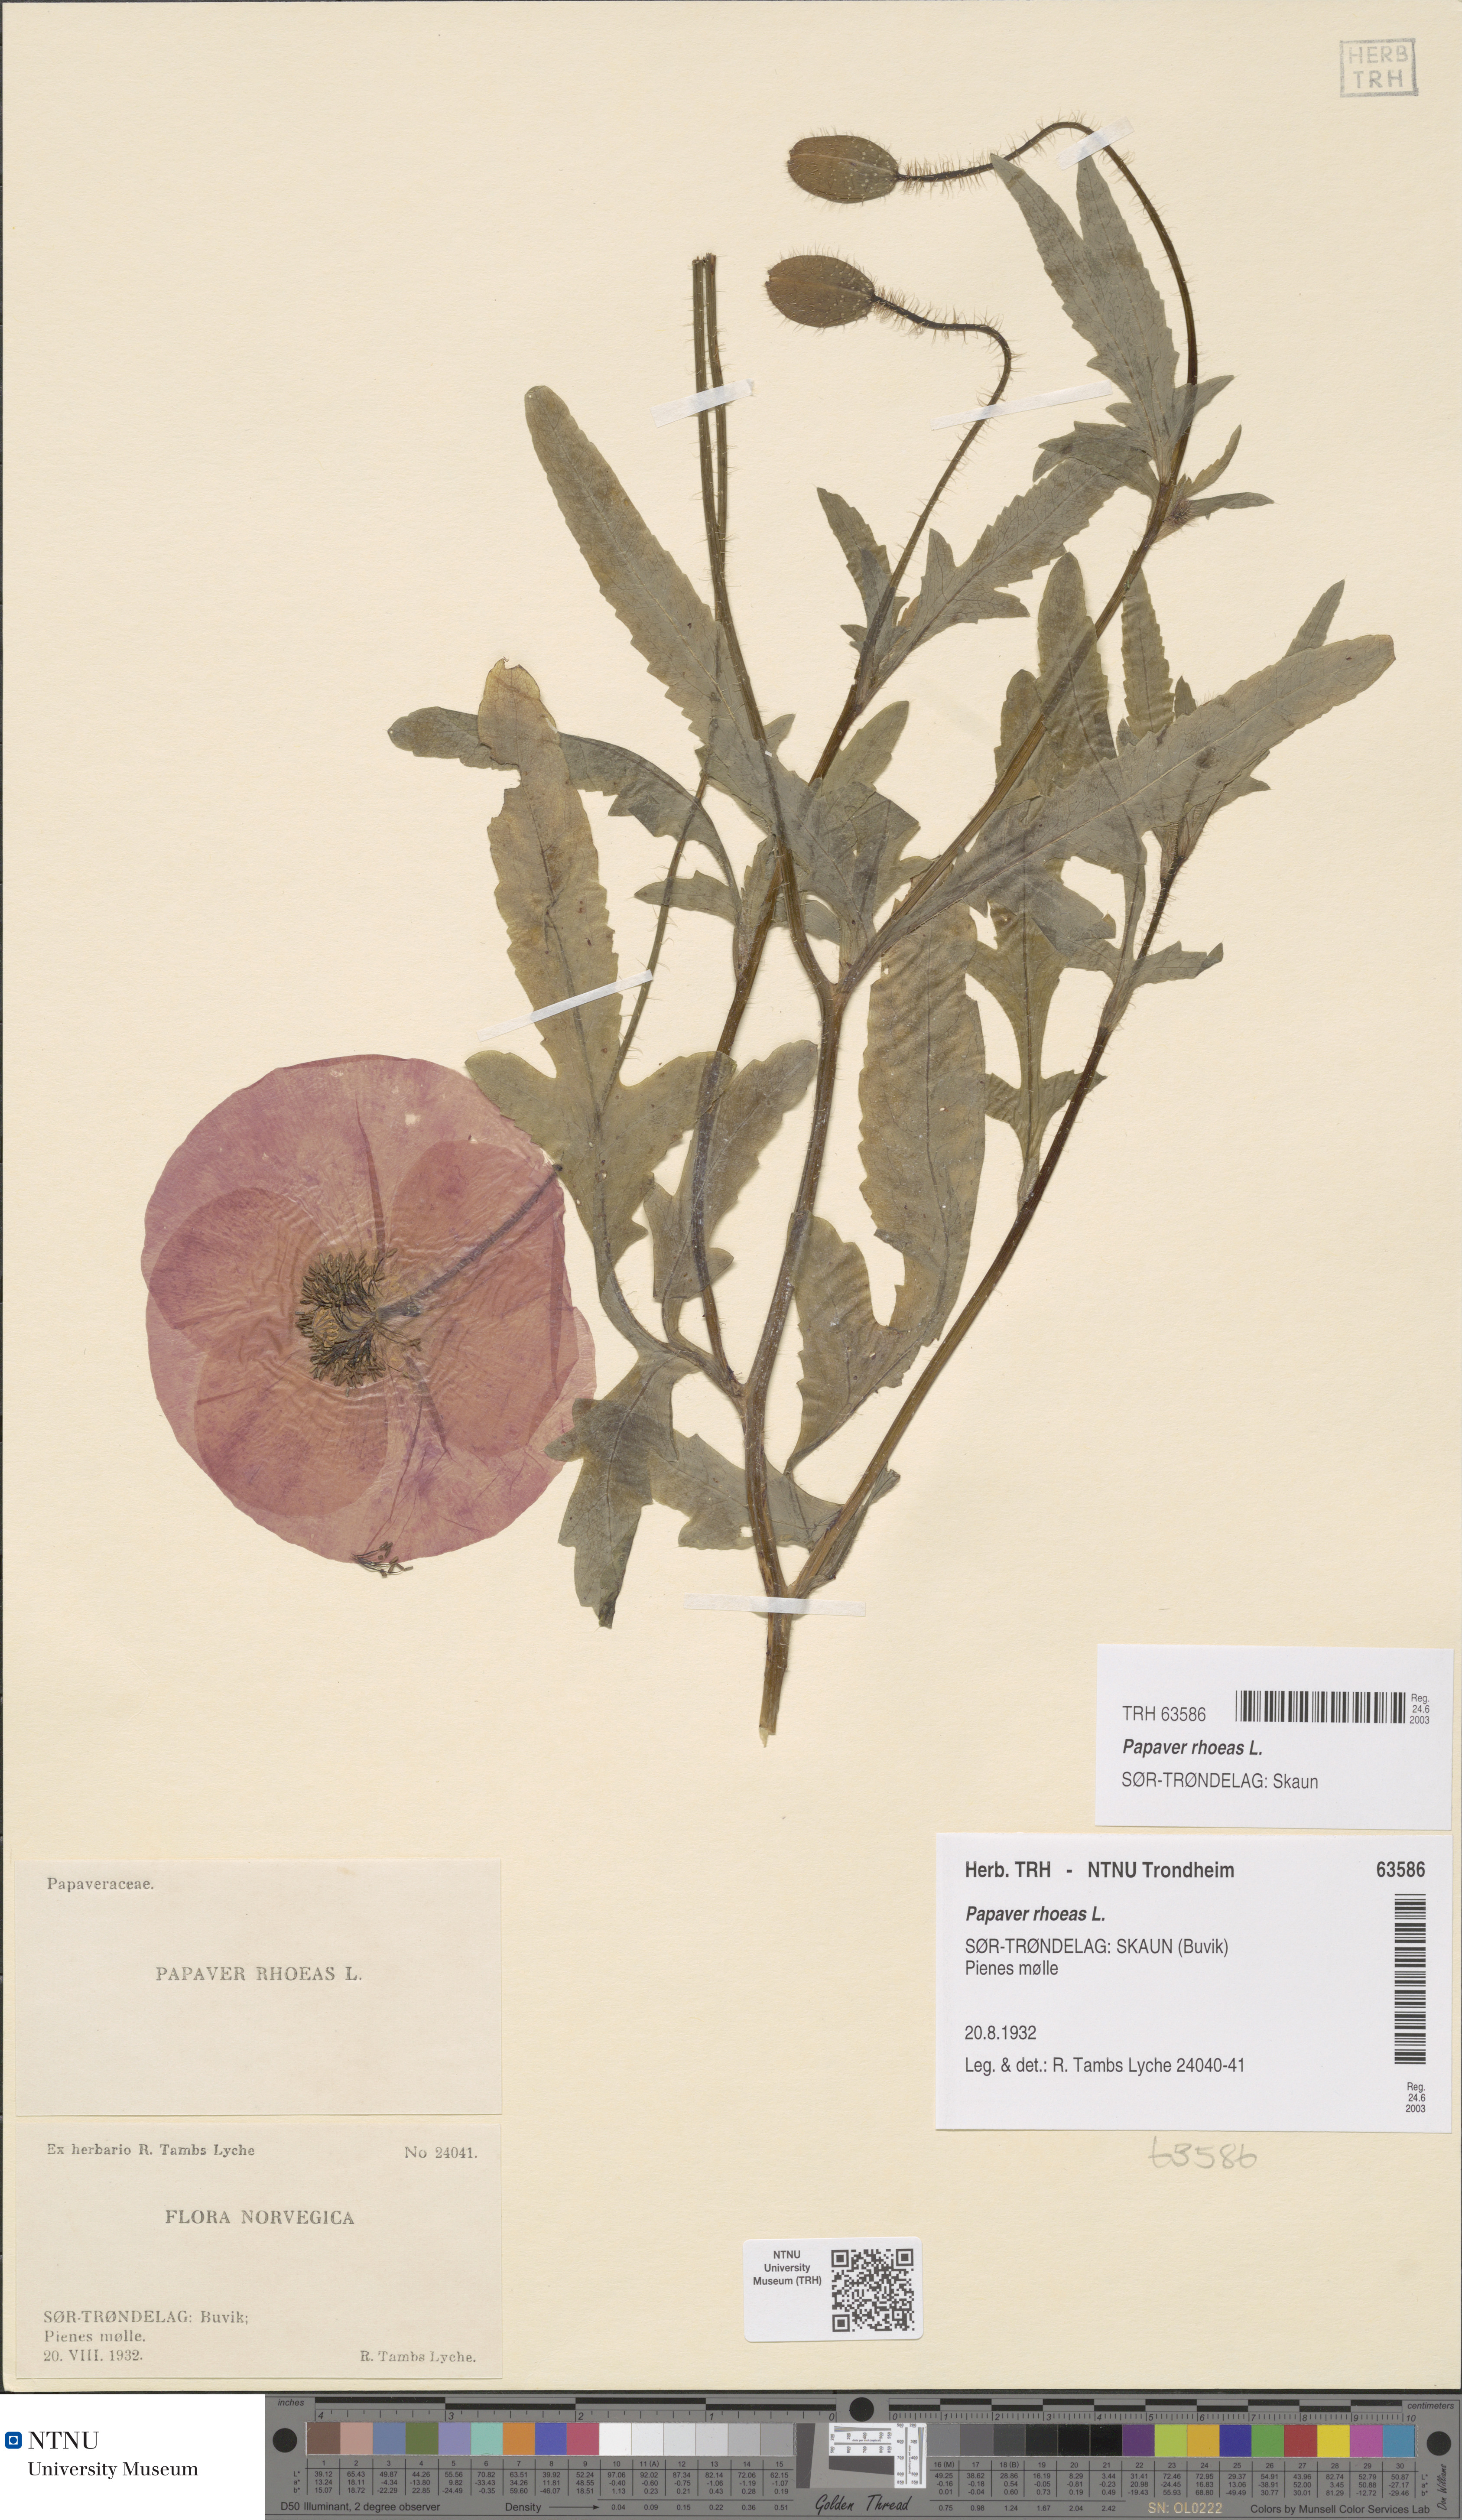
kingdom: Plantae
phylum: Tracheophyta
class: Magnoliopsida
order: Ranunculales
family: Papaveraceae
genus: Papaver
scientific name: Papaver rhoeas
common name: Corn poppy
